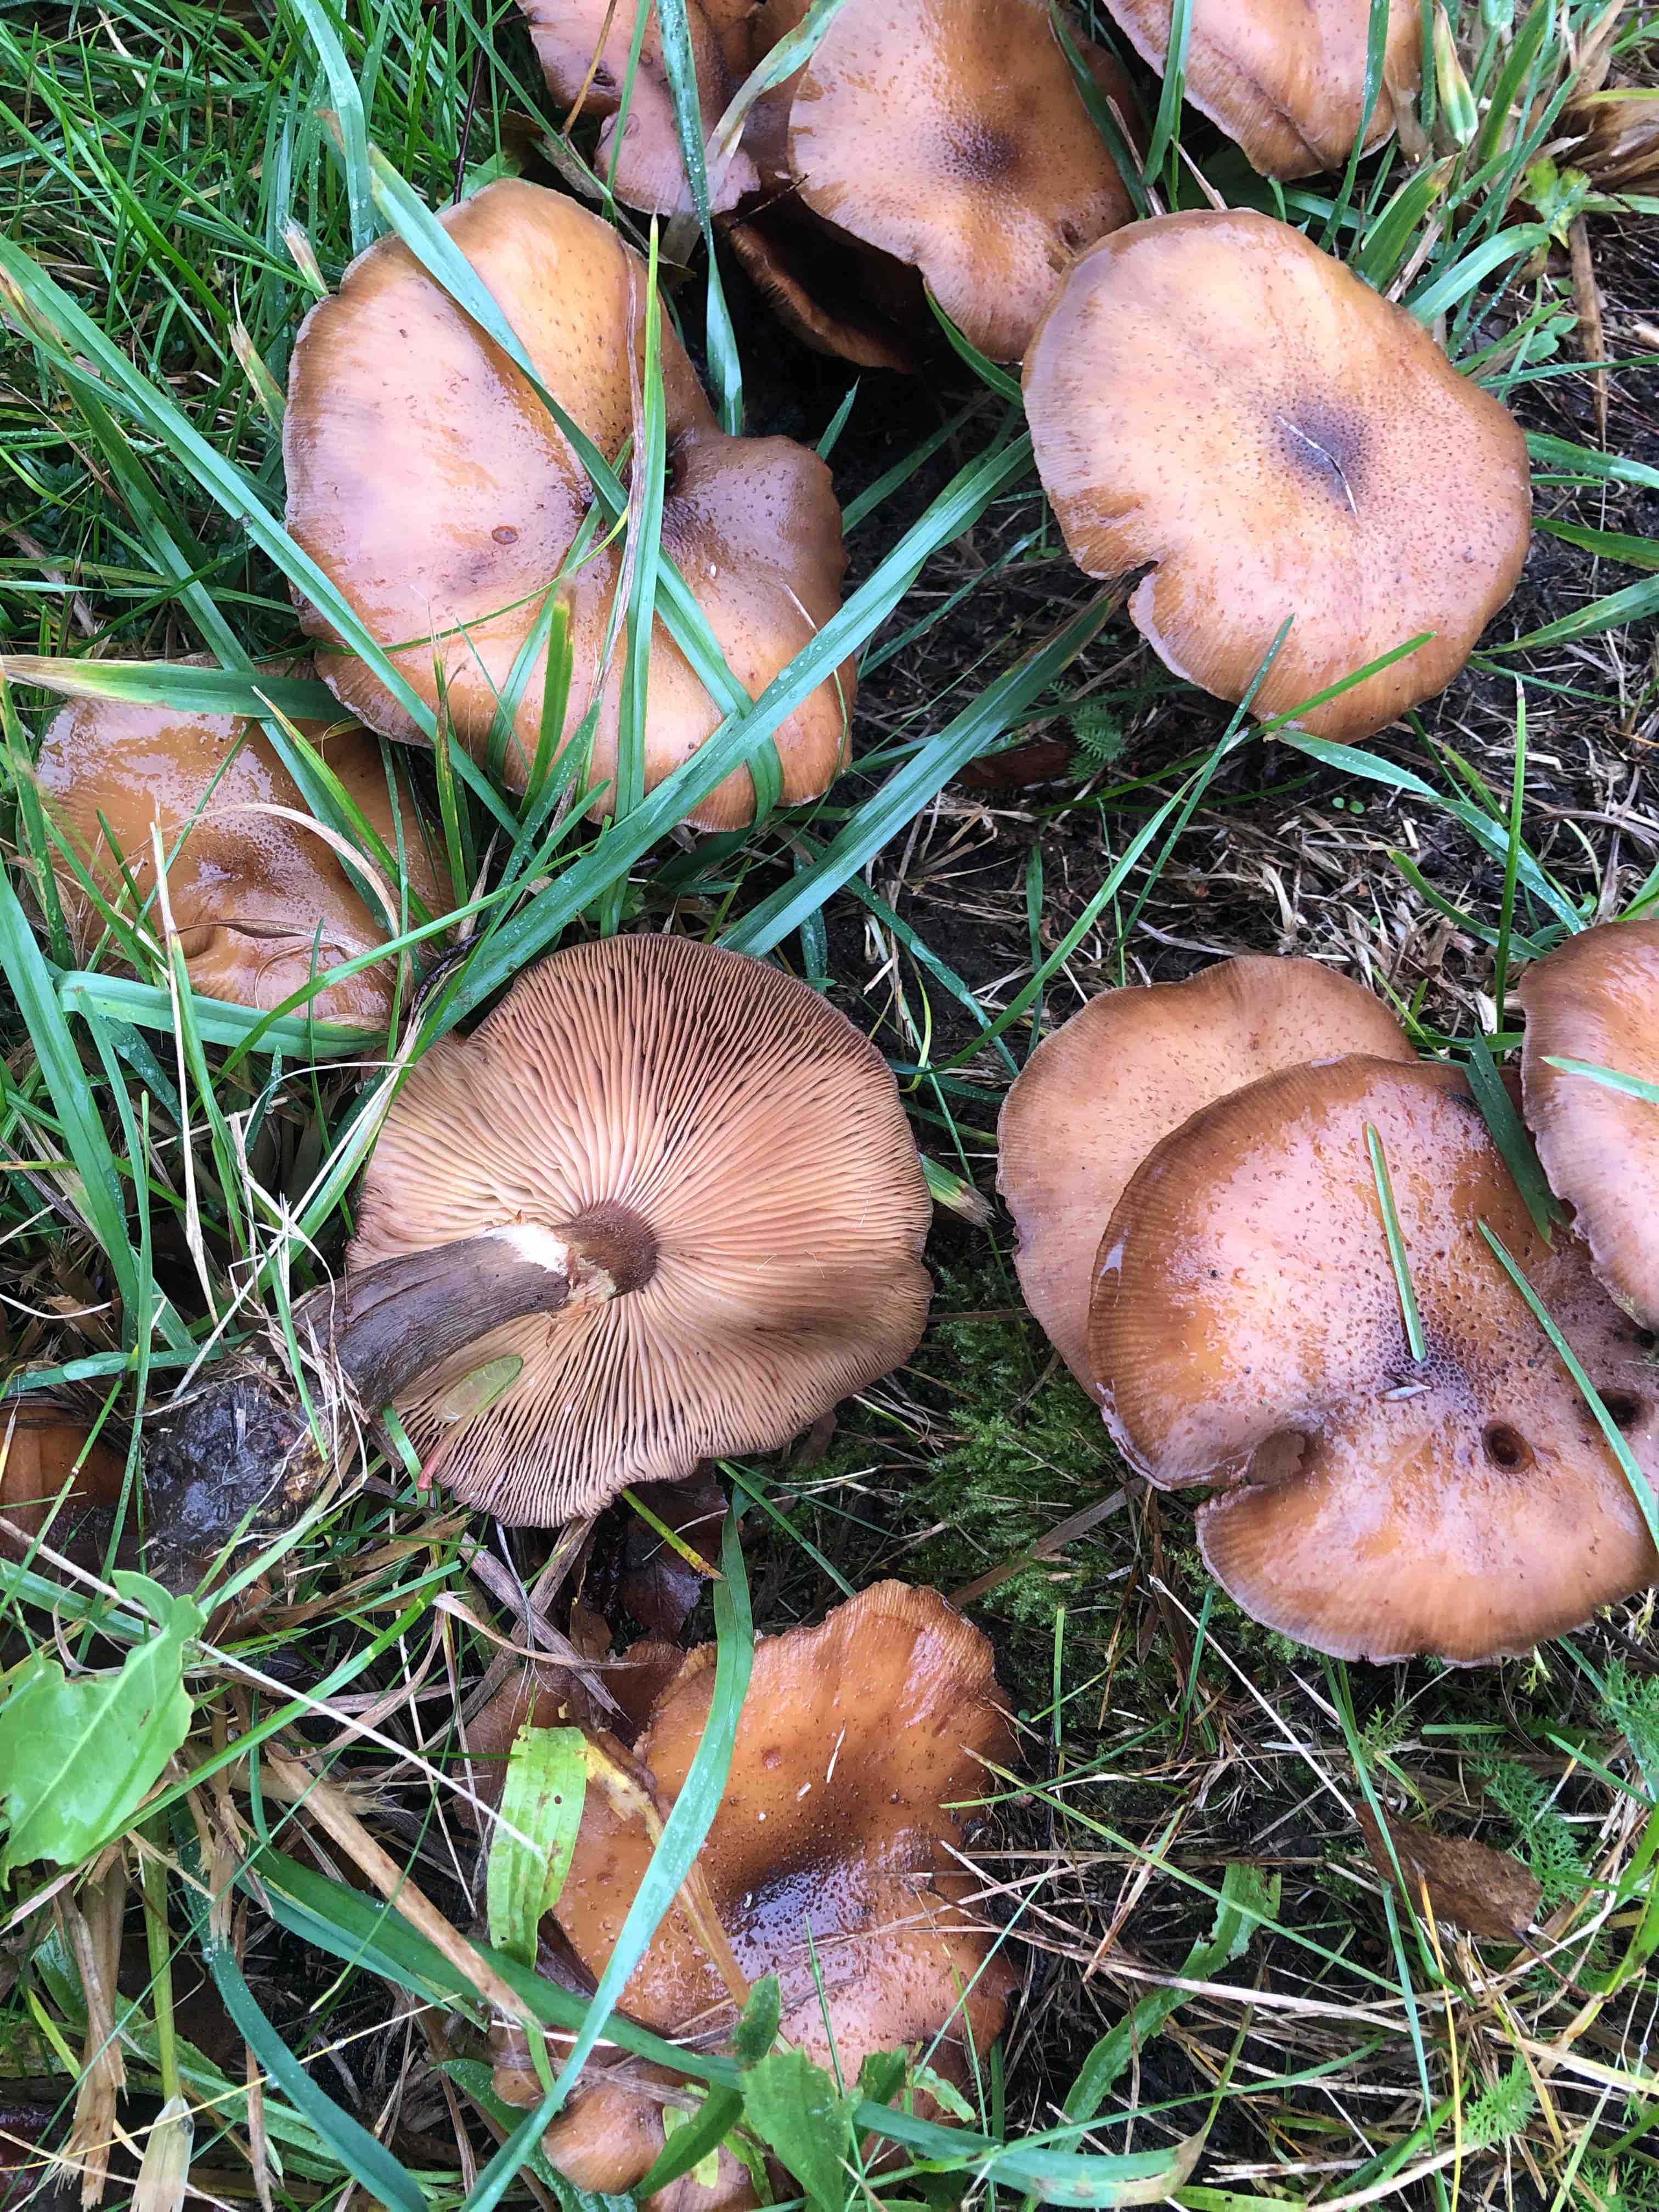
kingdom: Fungi
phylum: Basidiomycota
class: Agaricomycetes
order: Agaricales
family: Physalacriaceae
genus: Armillaria
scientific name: Armillaria lutea
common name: køllestokket honningsvamp
